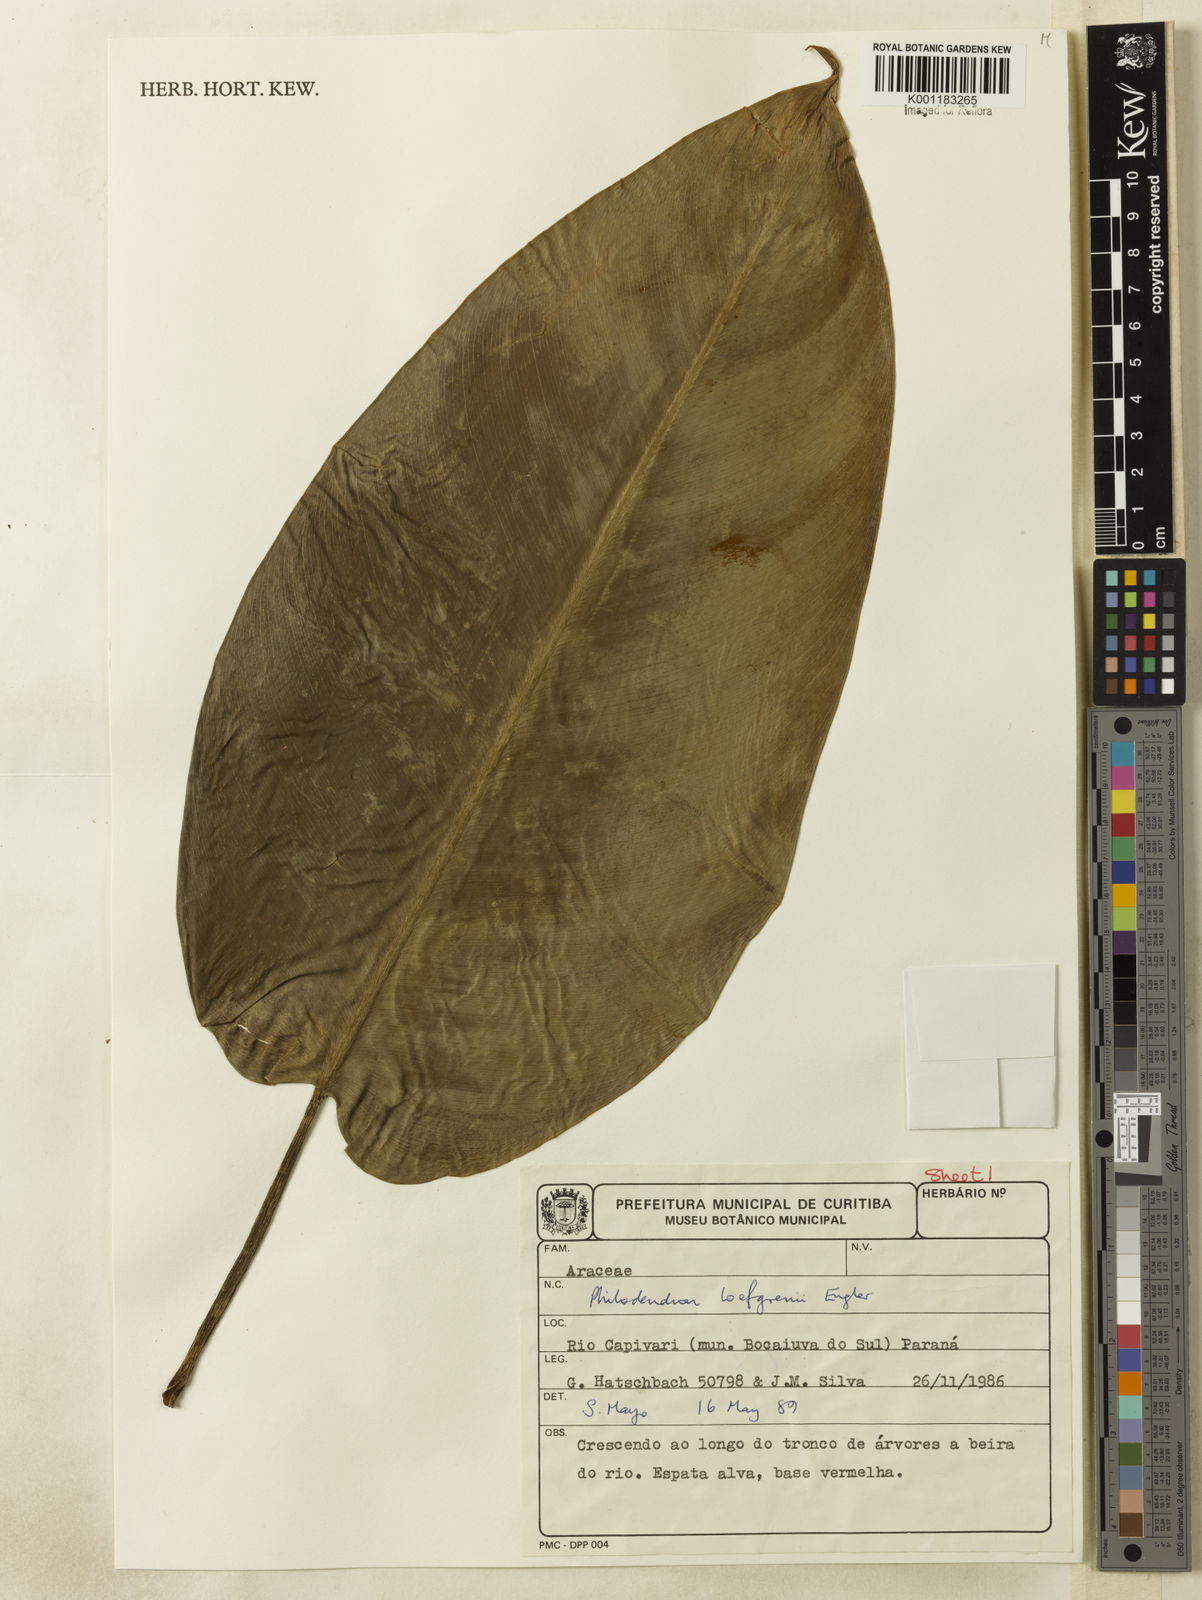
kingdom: Plantae
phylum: Tracheophyta
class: Liliopsida
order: Alismatales
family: Araceae
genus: Philodendron
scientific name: Philodendron loefgrenii
